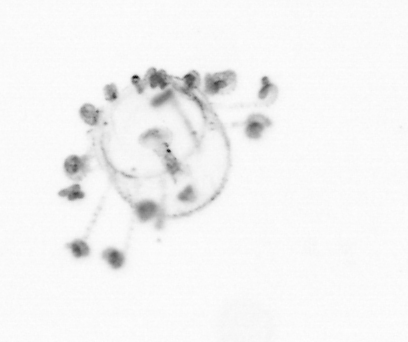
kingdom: Animalia
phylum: Cnidaria
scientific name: Cnidaria
